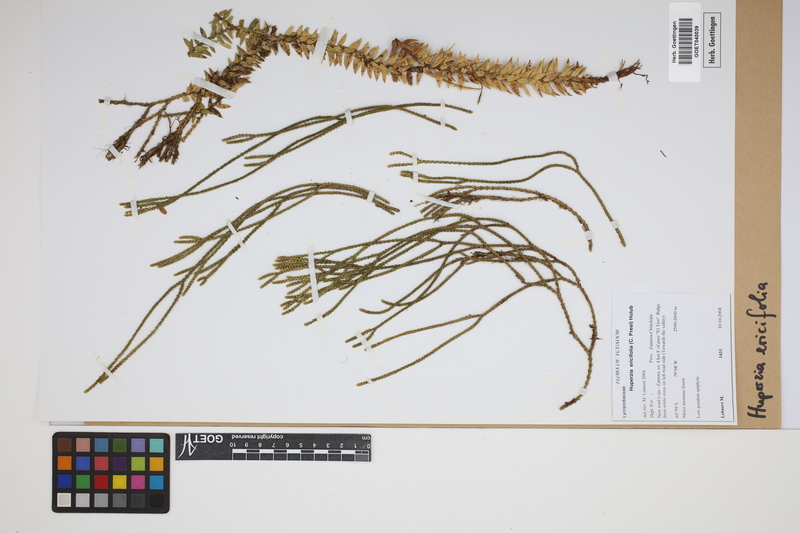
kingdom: Plantae
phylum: Tracheophyta
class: Lycopodiopsida
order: Lycopodiales
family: Lycopodiaceae
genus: Phlegmariurus
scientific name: Phlegmariurus ericifolius
